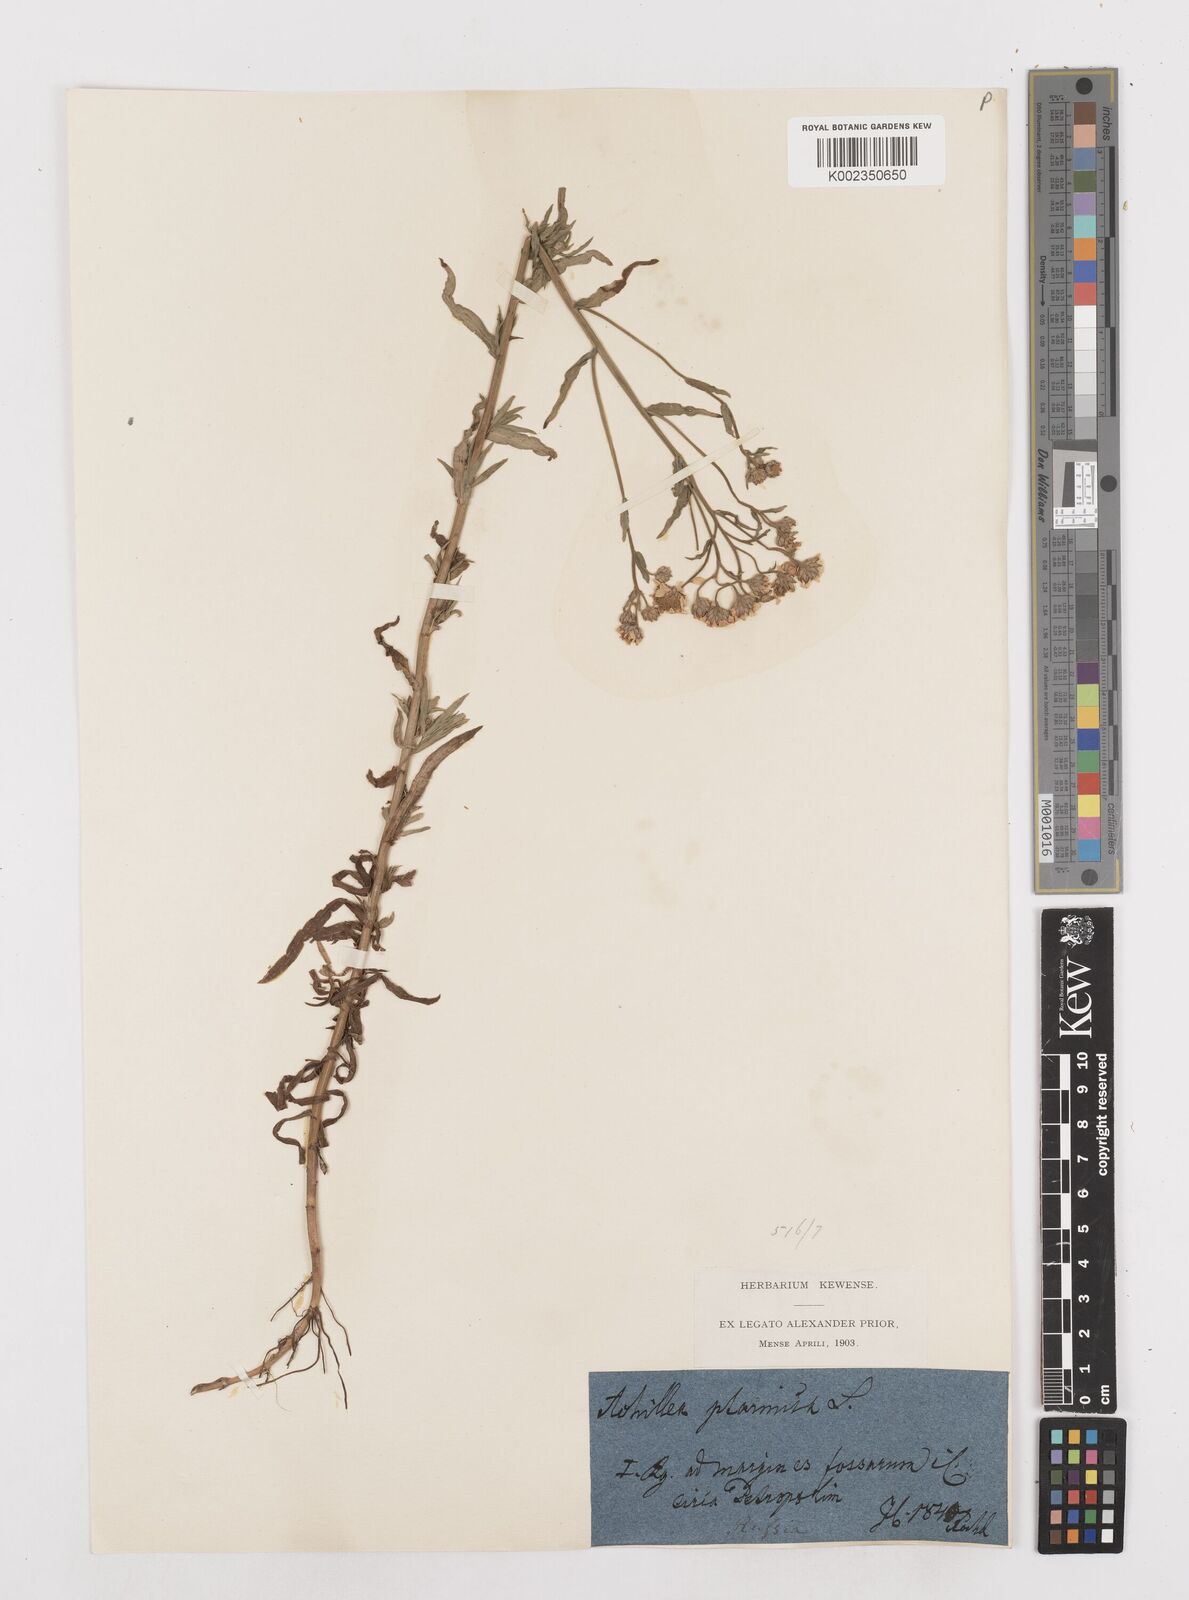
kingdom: Plantae
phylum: Tracheophyta
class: Magnoliopsida
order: Asterales
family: Asteraceae
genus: Achillea
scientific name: Achillea ptarmica
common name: Sneezeweed
